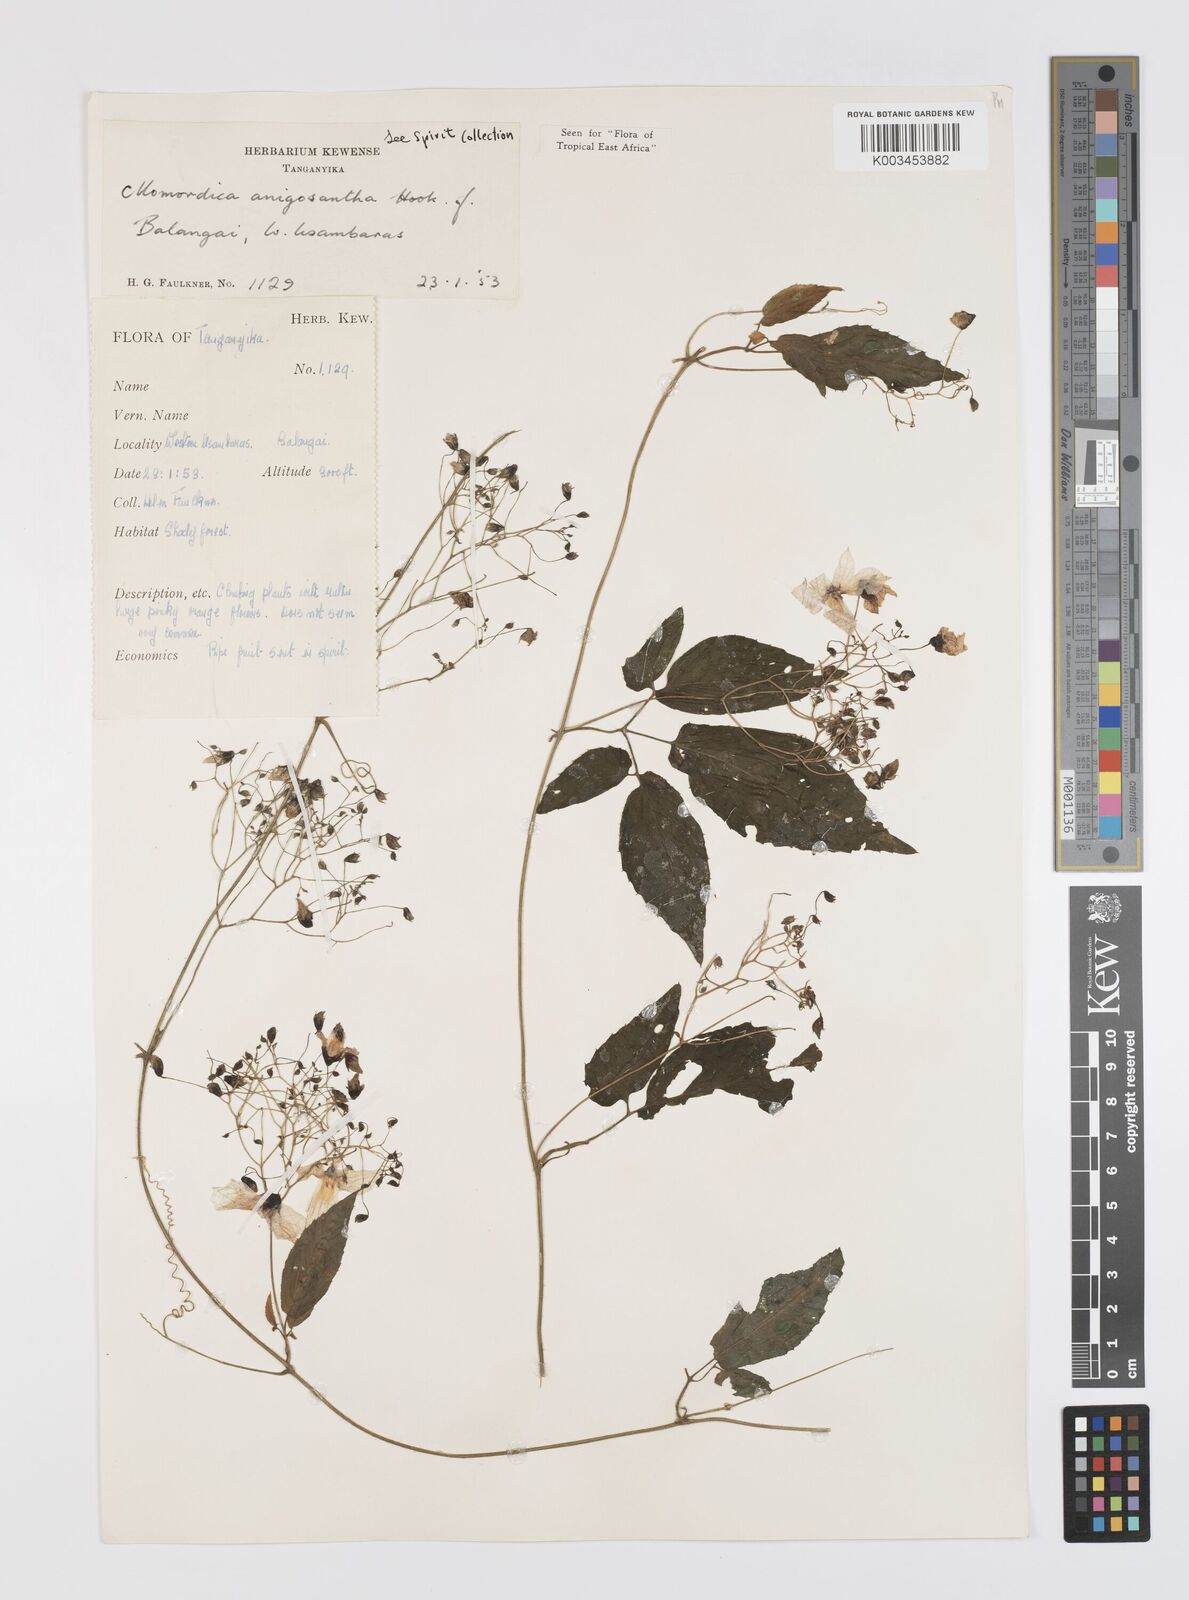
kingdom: Plantae
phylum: Tracheophyta
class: Magnoliopsida
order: Cucurbitales
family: Cucurbitaceae
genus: Momordica
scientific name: Momordica anigosantha
